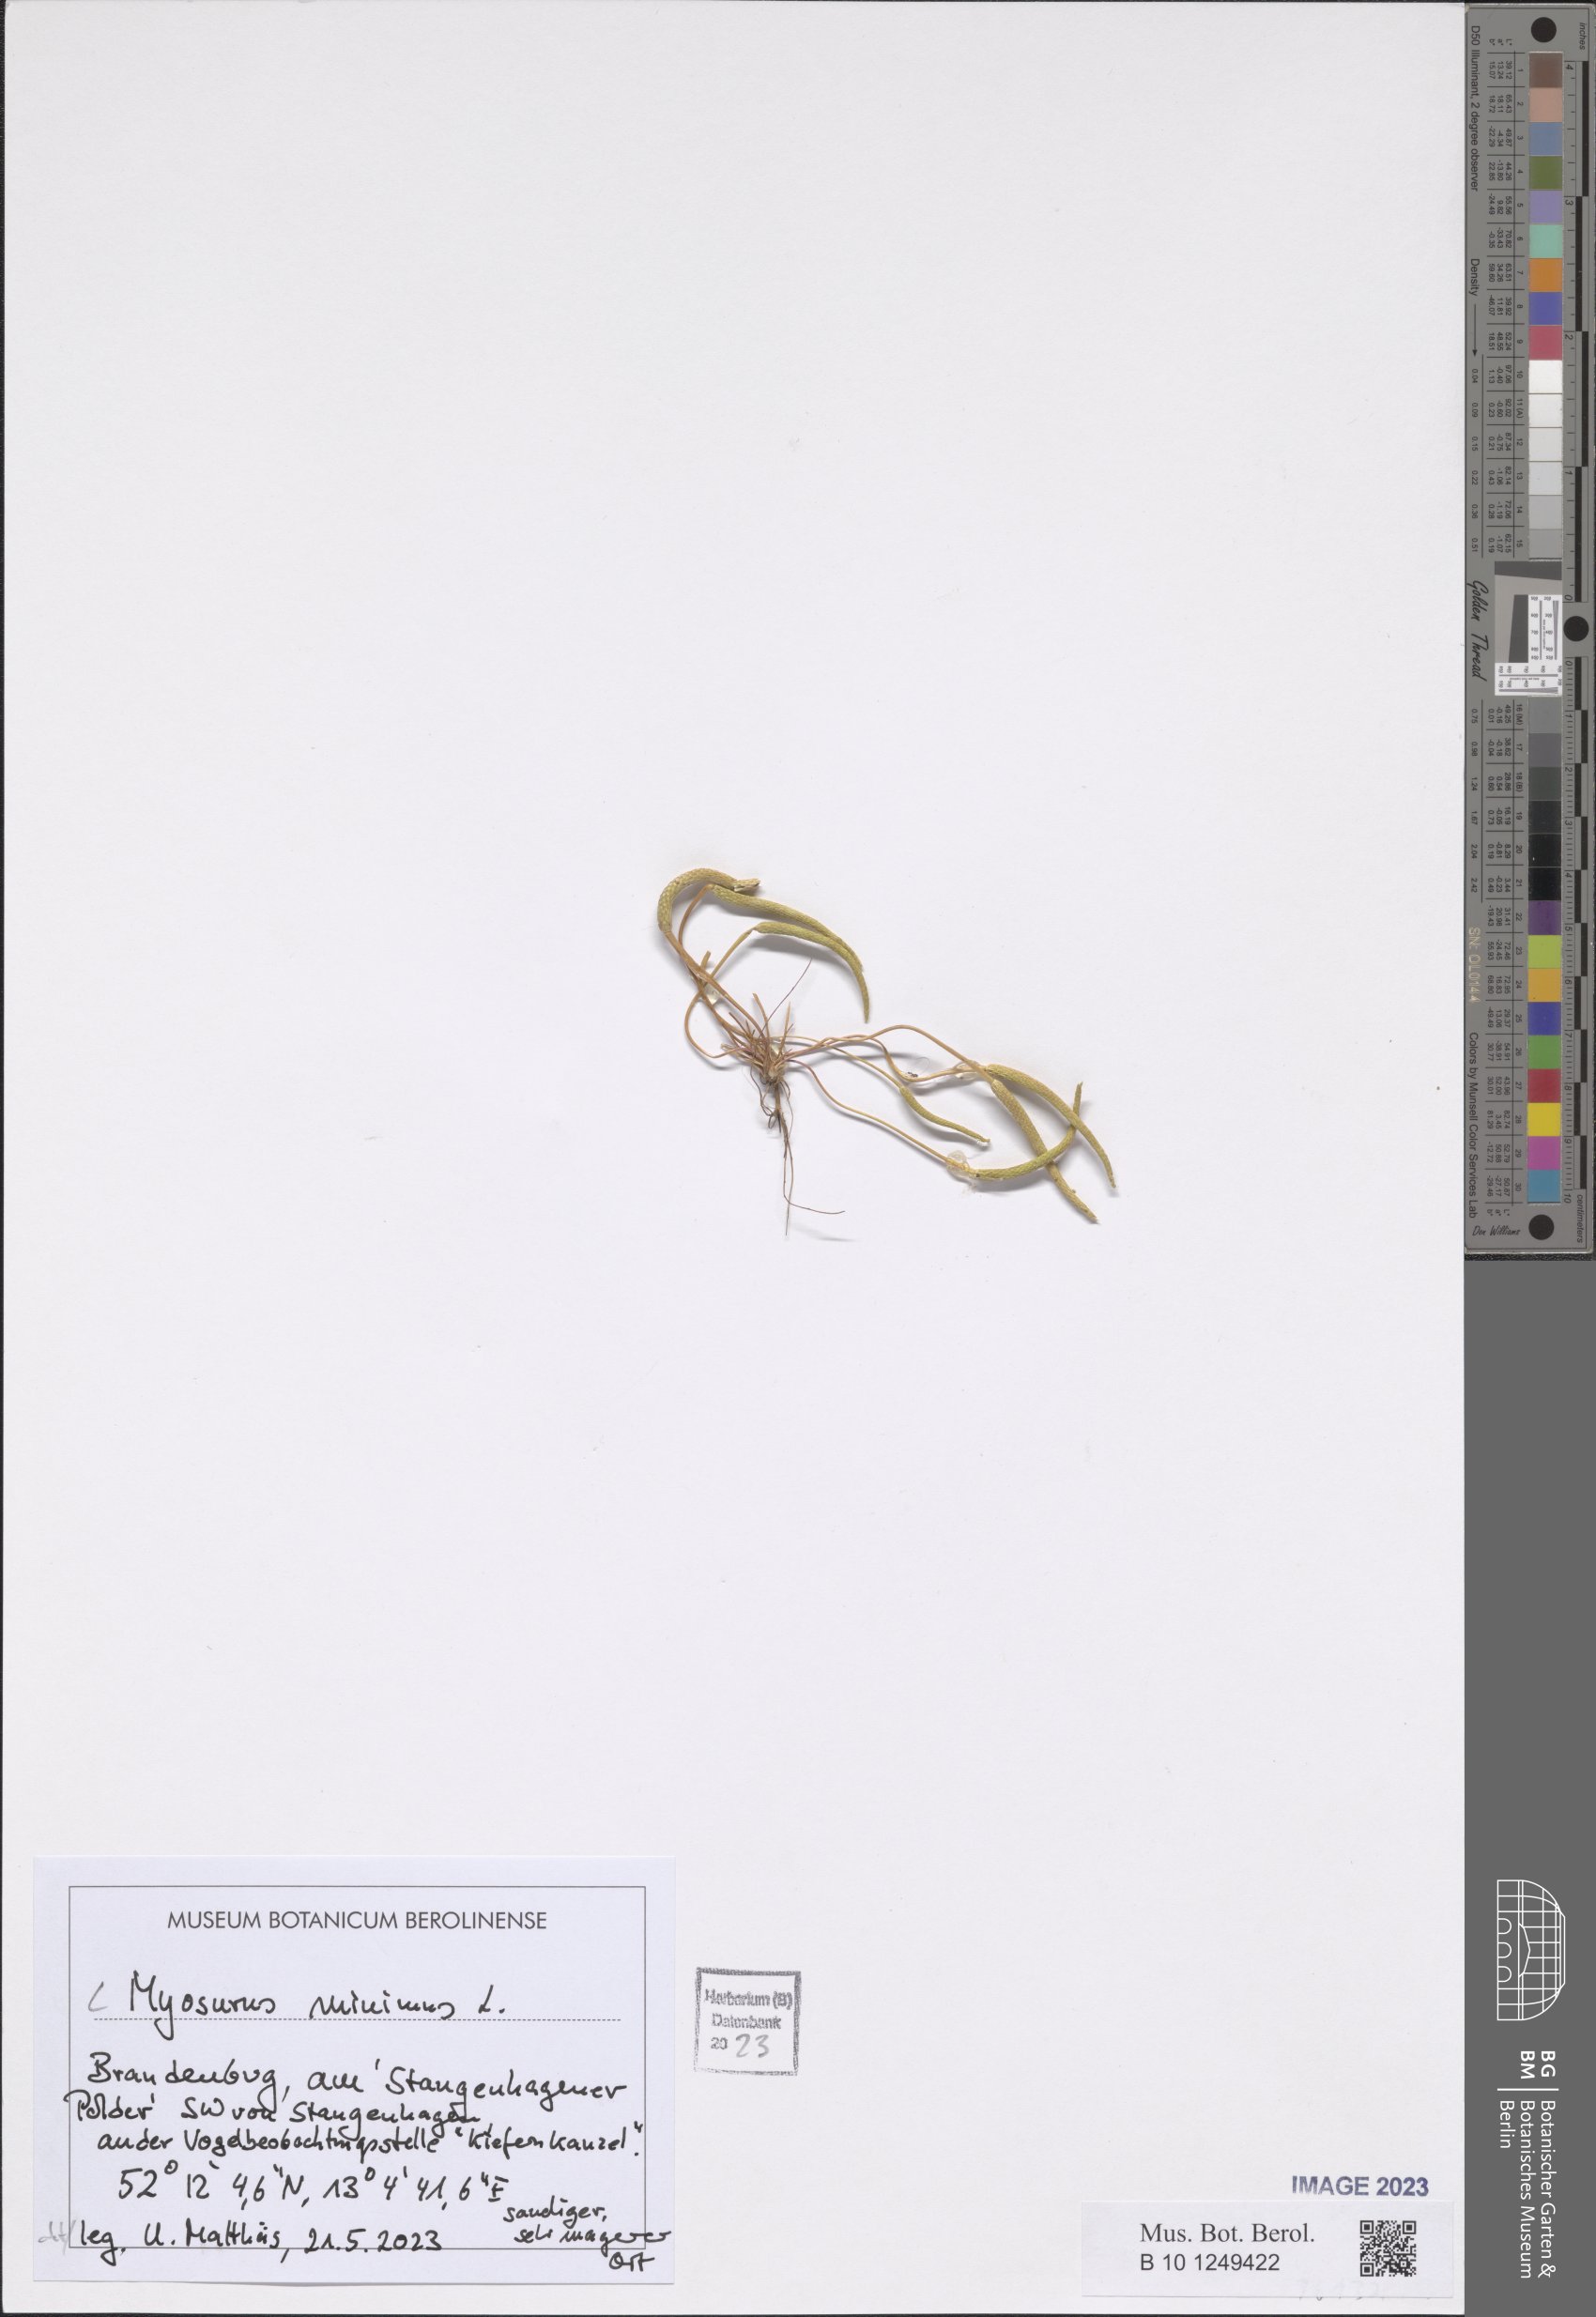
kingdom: Plantae
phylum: Tracheophyta
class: Magnoliopsida
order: Ranunculales
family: Ranunculaceae
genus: Myosurus
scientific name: Myosurus minimus
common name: Mousetail
